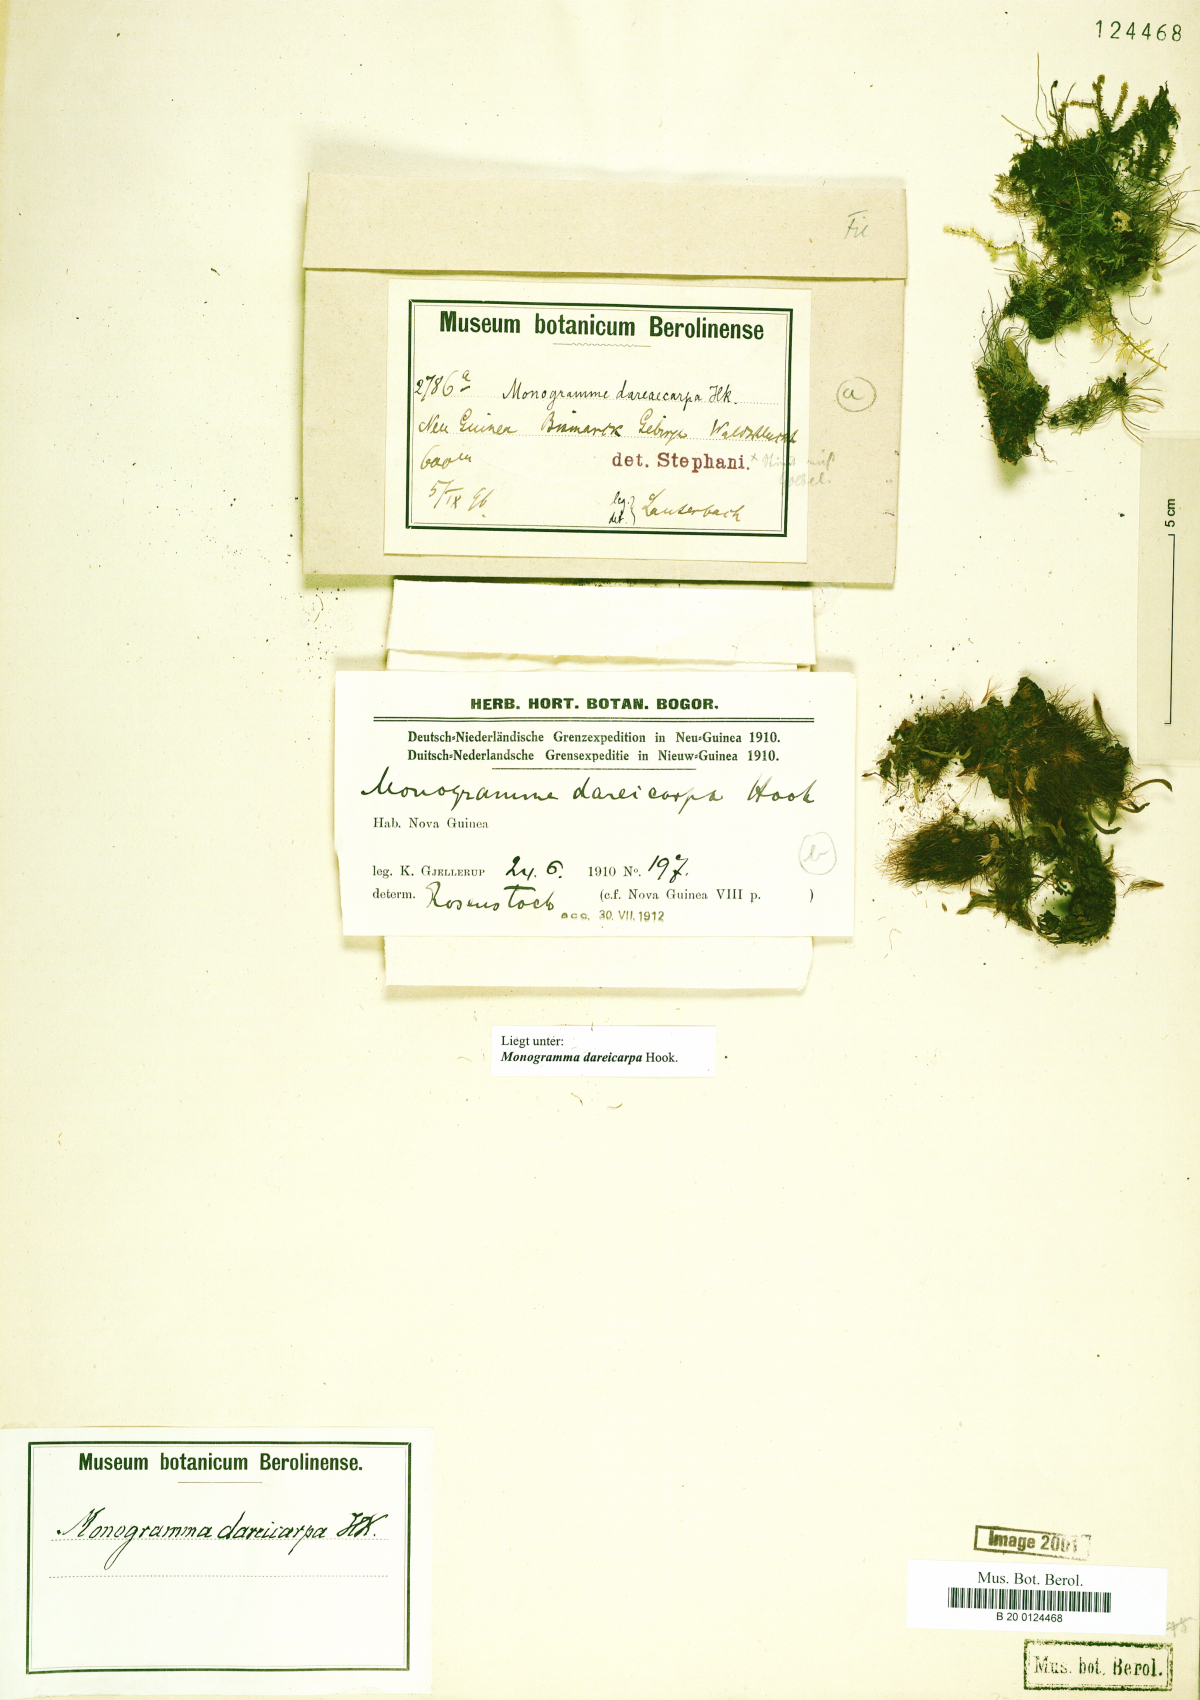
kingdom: Plantae
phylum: Tracheophyta
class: Polypodiopsida
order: Polypodiales
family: Pteridaceae
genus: Haplopteris
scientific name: Haplopteris dareicarpa
